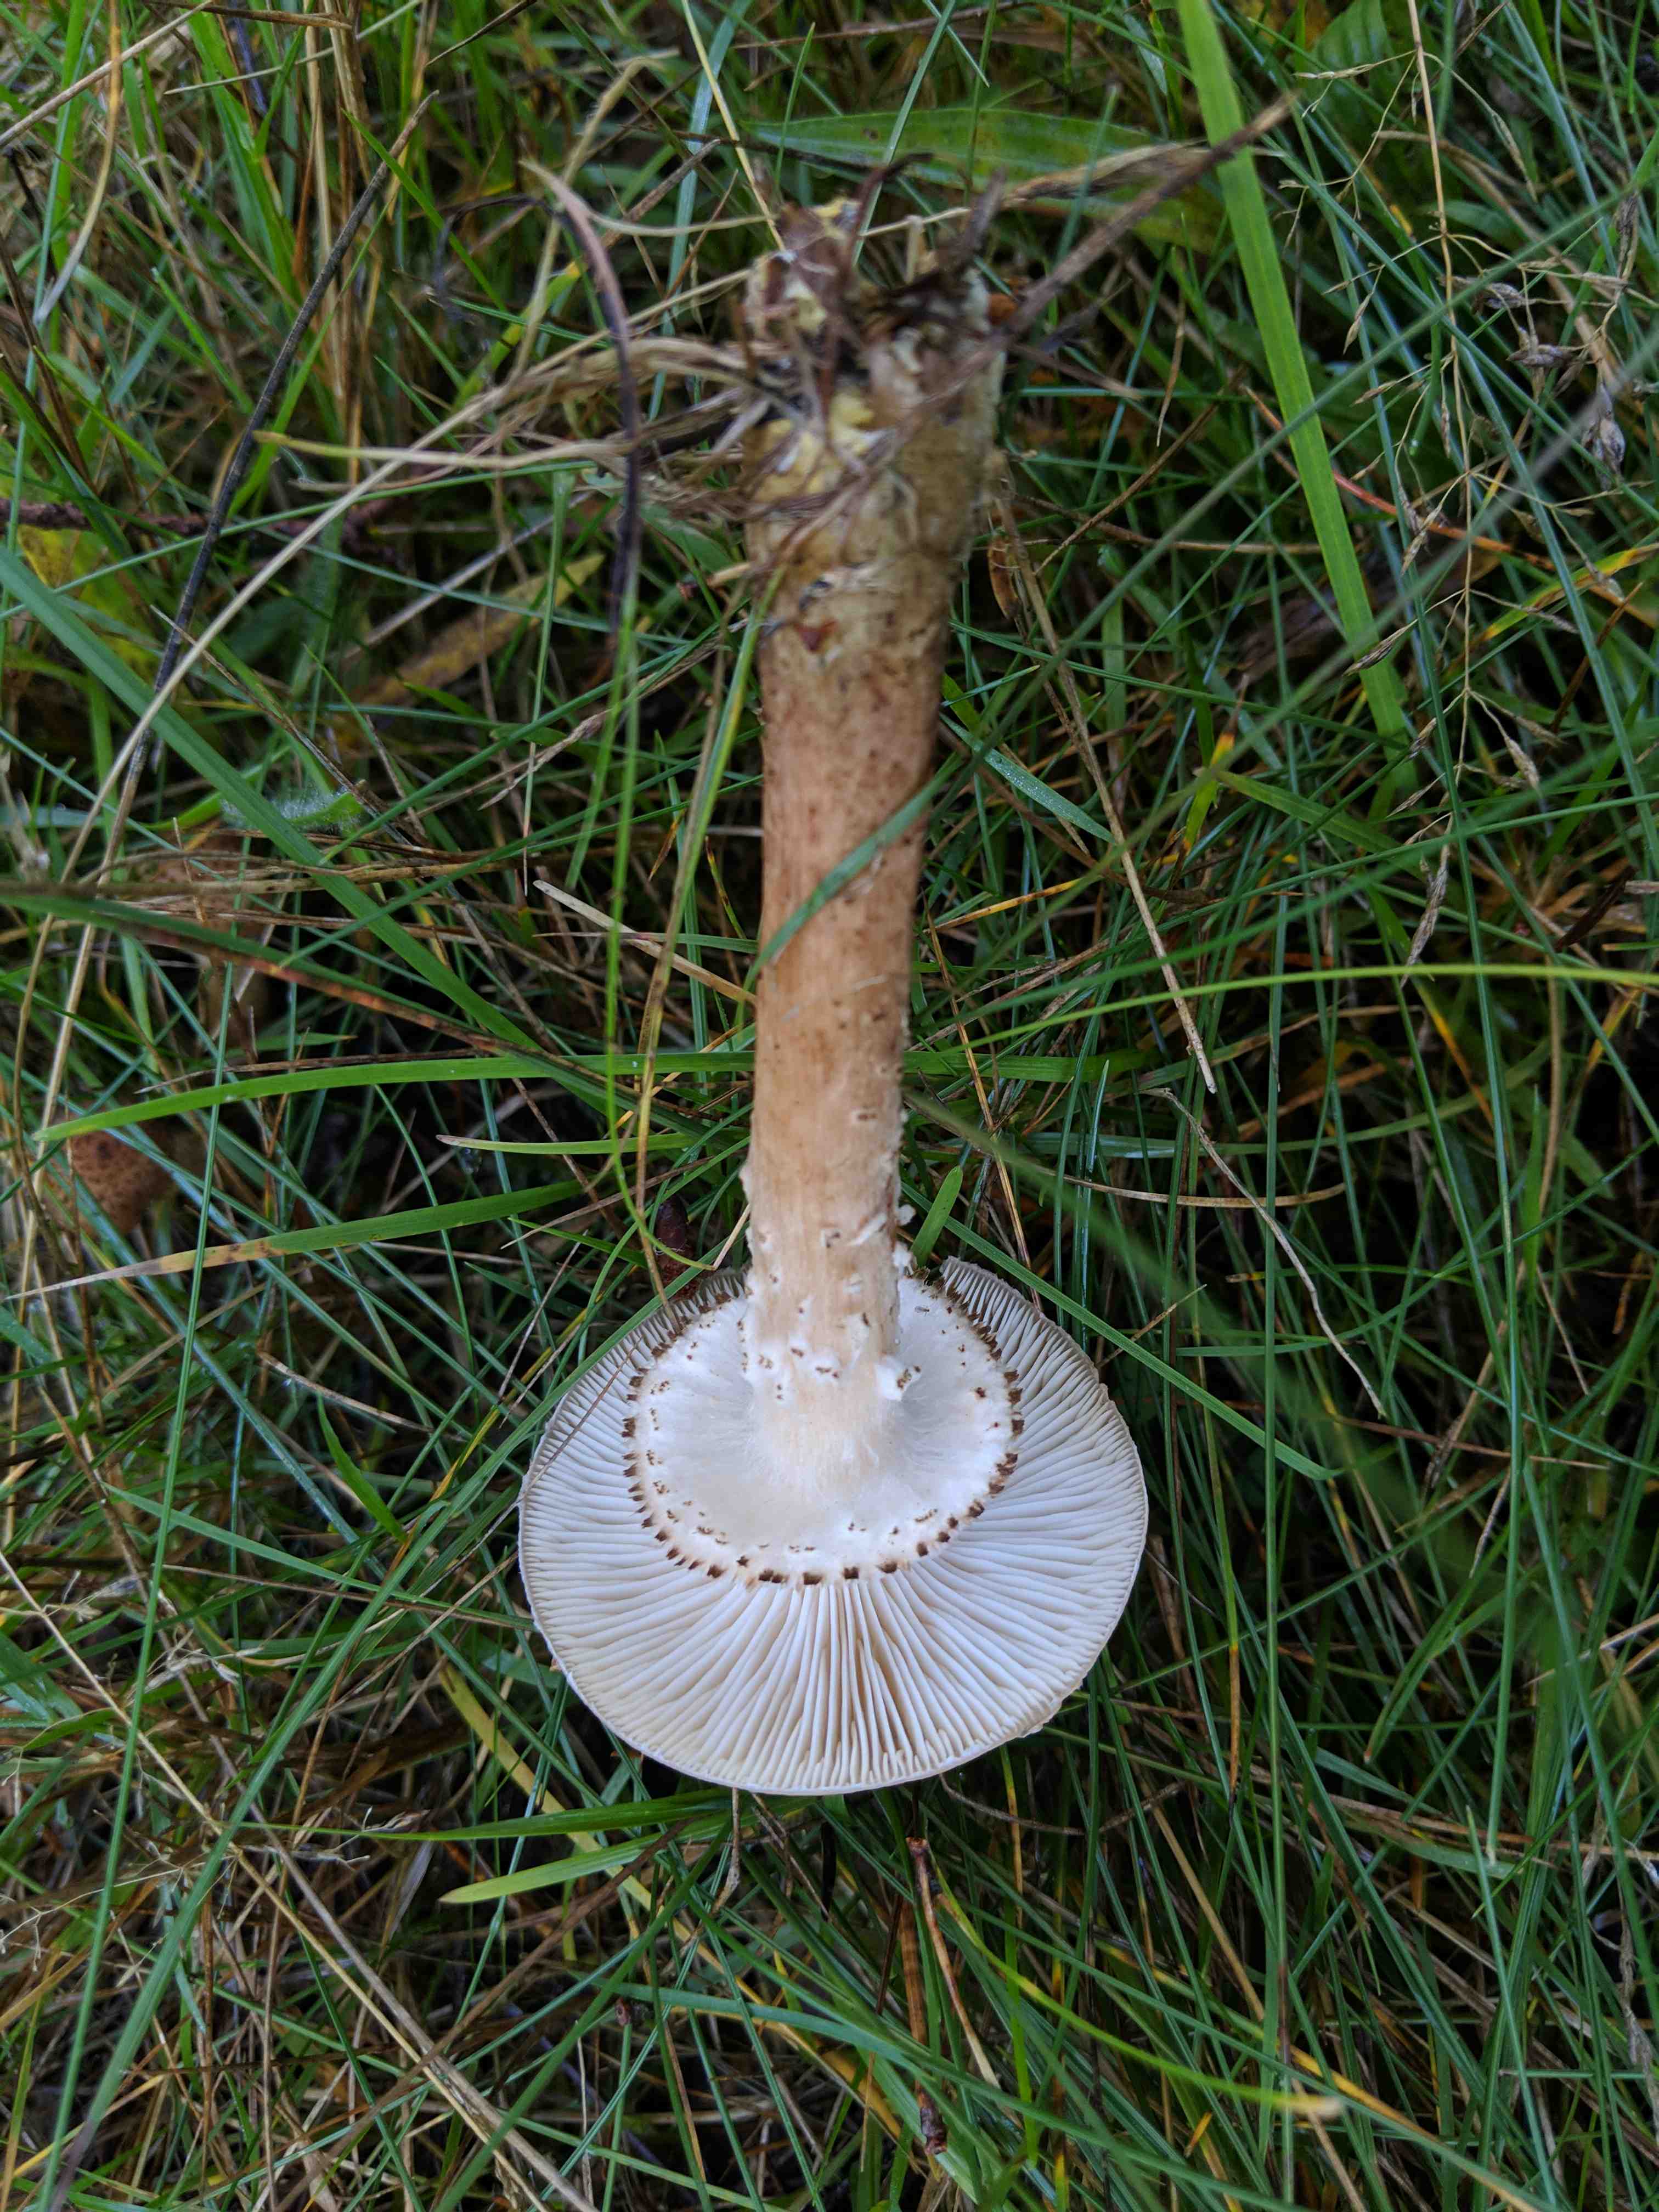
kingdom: Fungi
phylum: Basidiomycota
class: Agaricomycetes
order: Agaricales
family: Physalacriaceae
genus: Armillaria
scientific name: Armillaria ostoyae
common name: mørk honningsvamp
